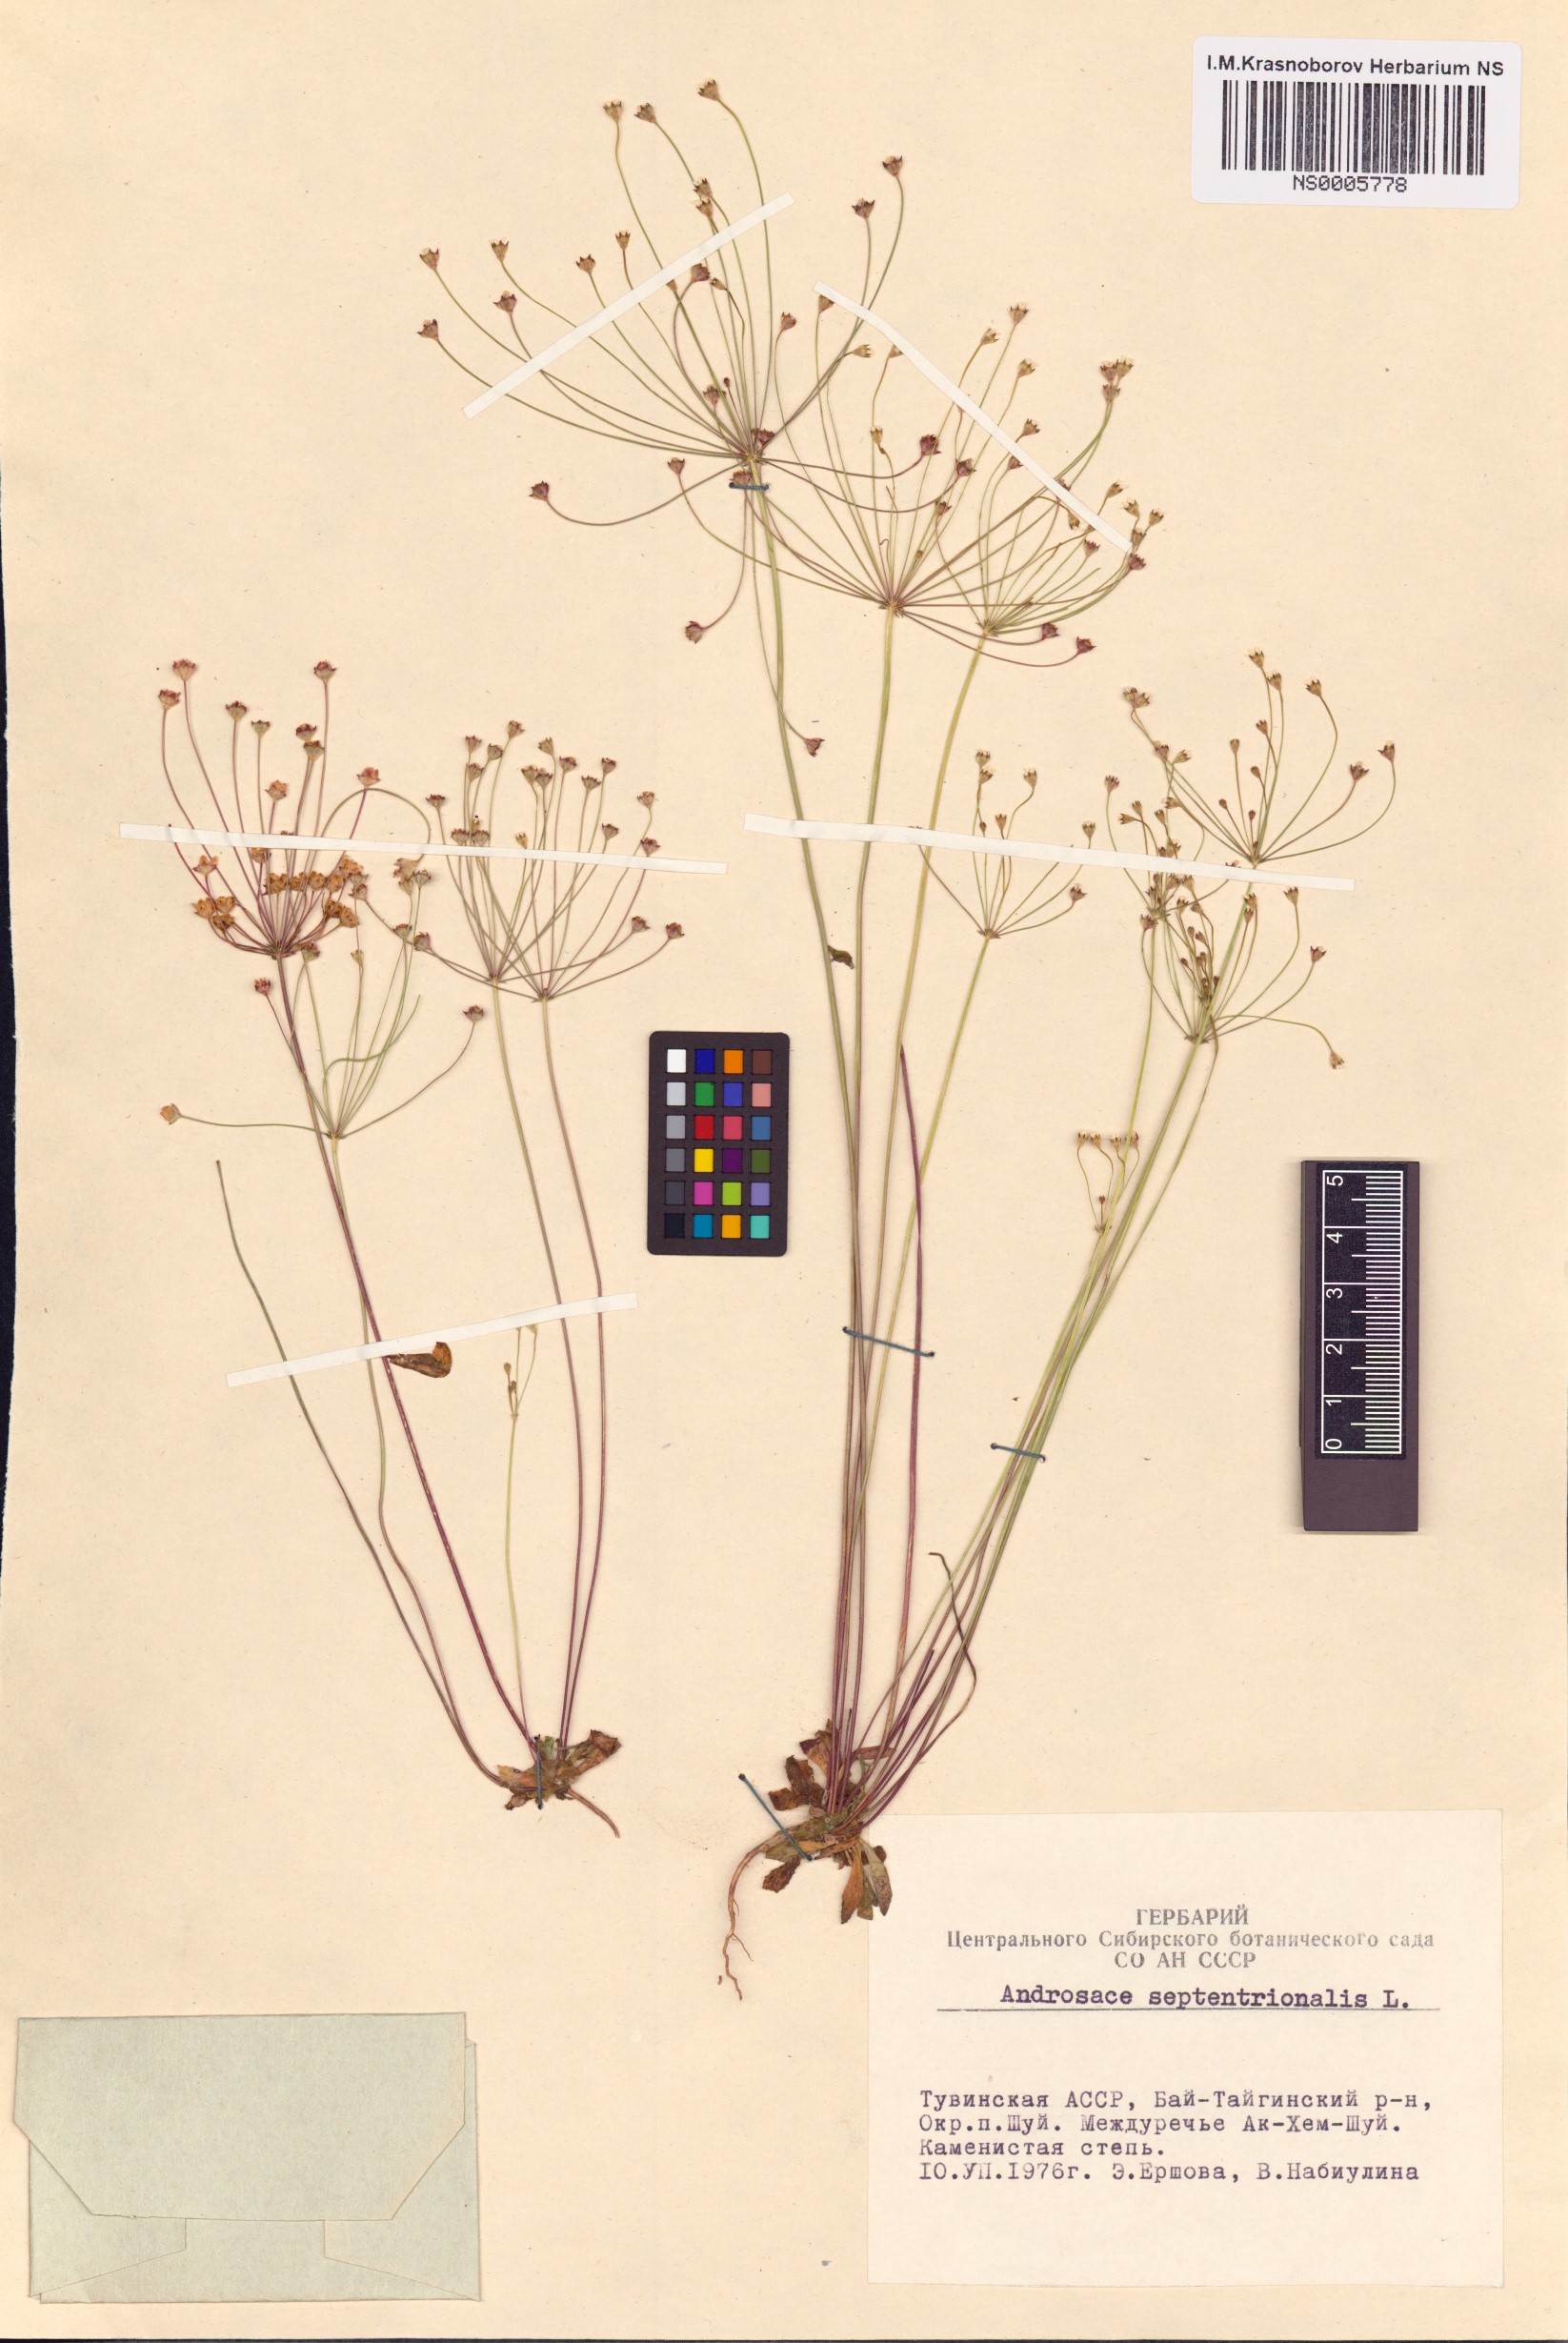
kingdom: Plantae
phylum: Tracheophyta
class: Magnoliopsida
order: Ericales
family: Primulaceae
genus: Androsace
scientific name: Androsace septentrionalis
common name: Hairy northern fairy-candelabra
